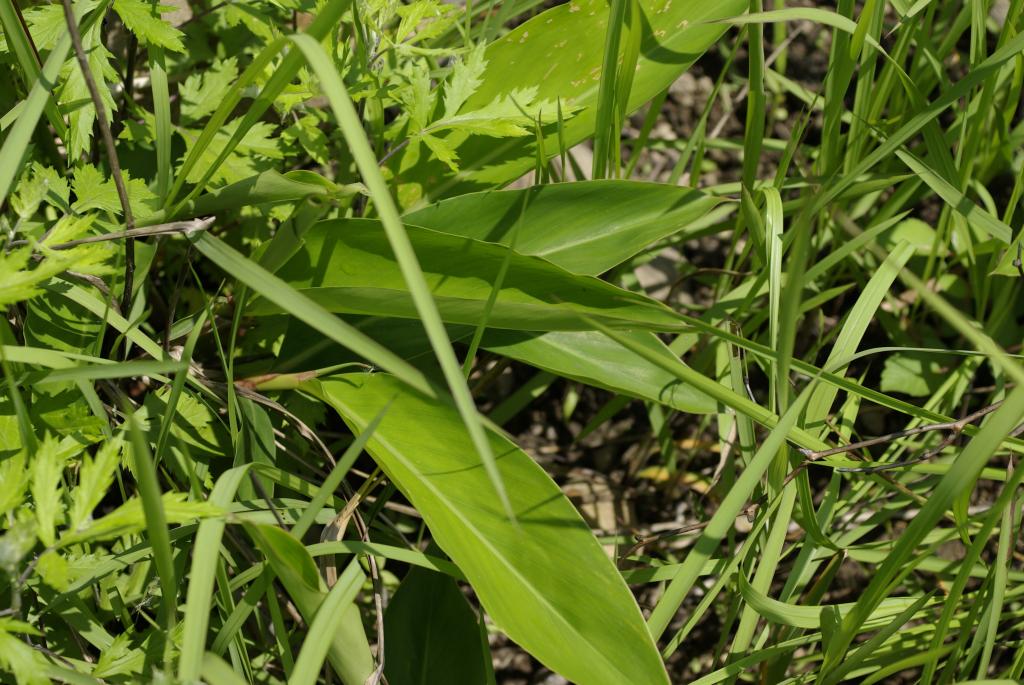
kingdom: Plantae
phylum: Tracheophyta
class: Liliopsida
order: Zingiberales
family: Zingiberaceae
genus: Alpinia
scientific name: Alpinia zerumbet
